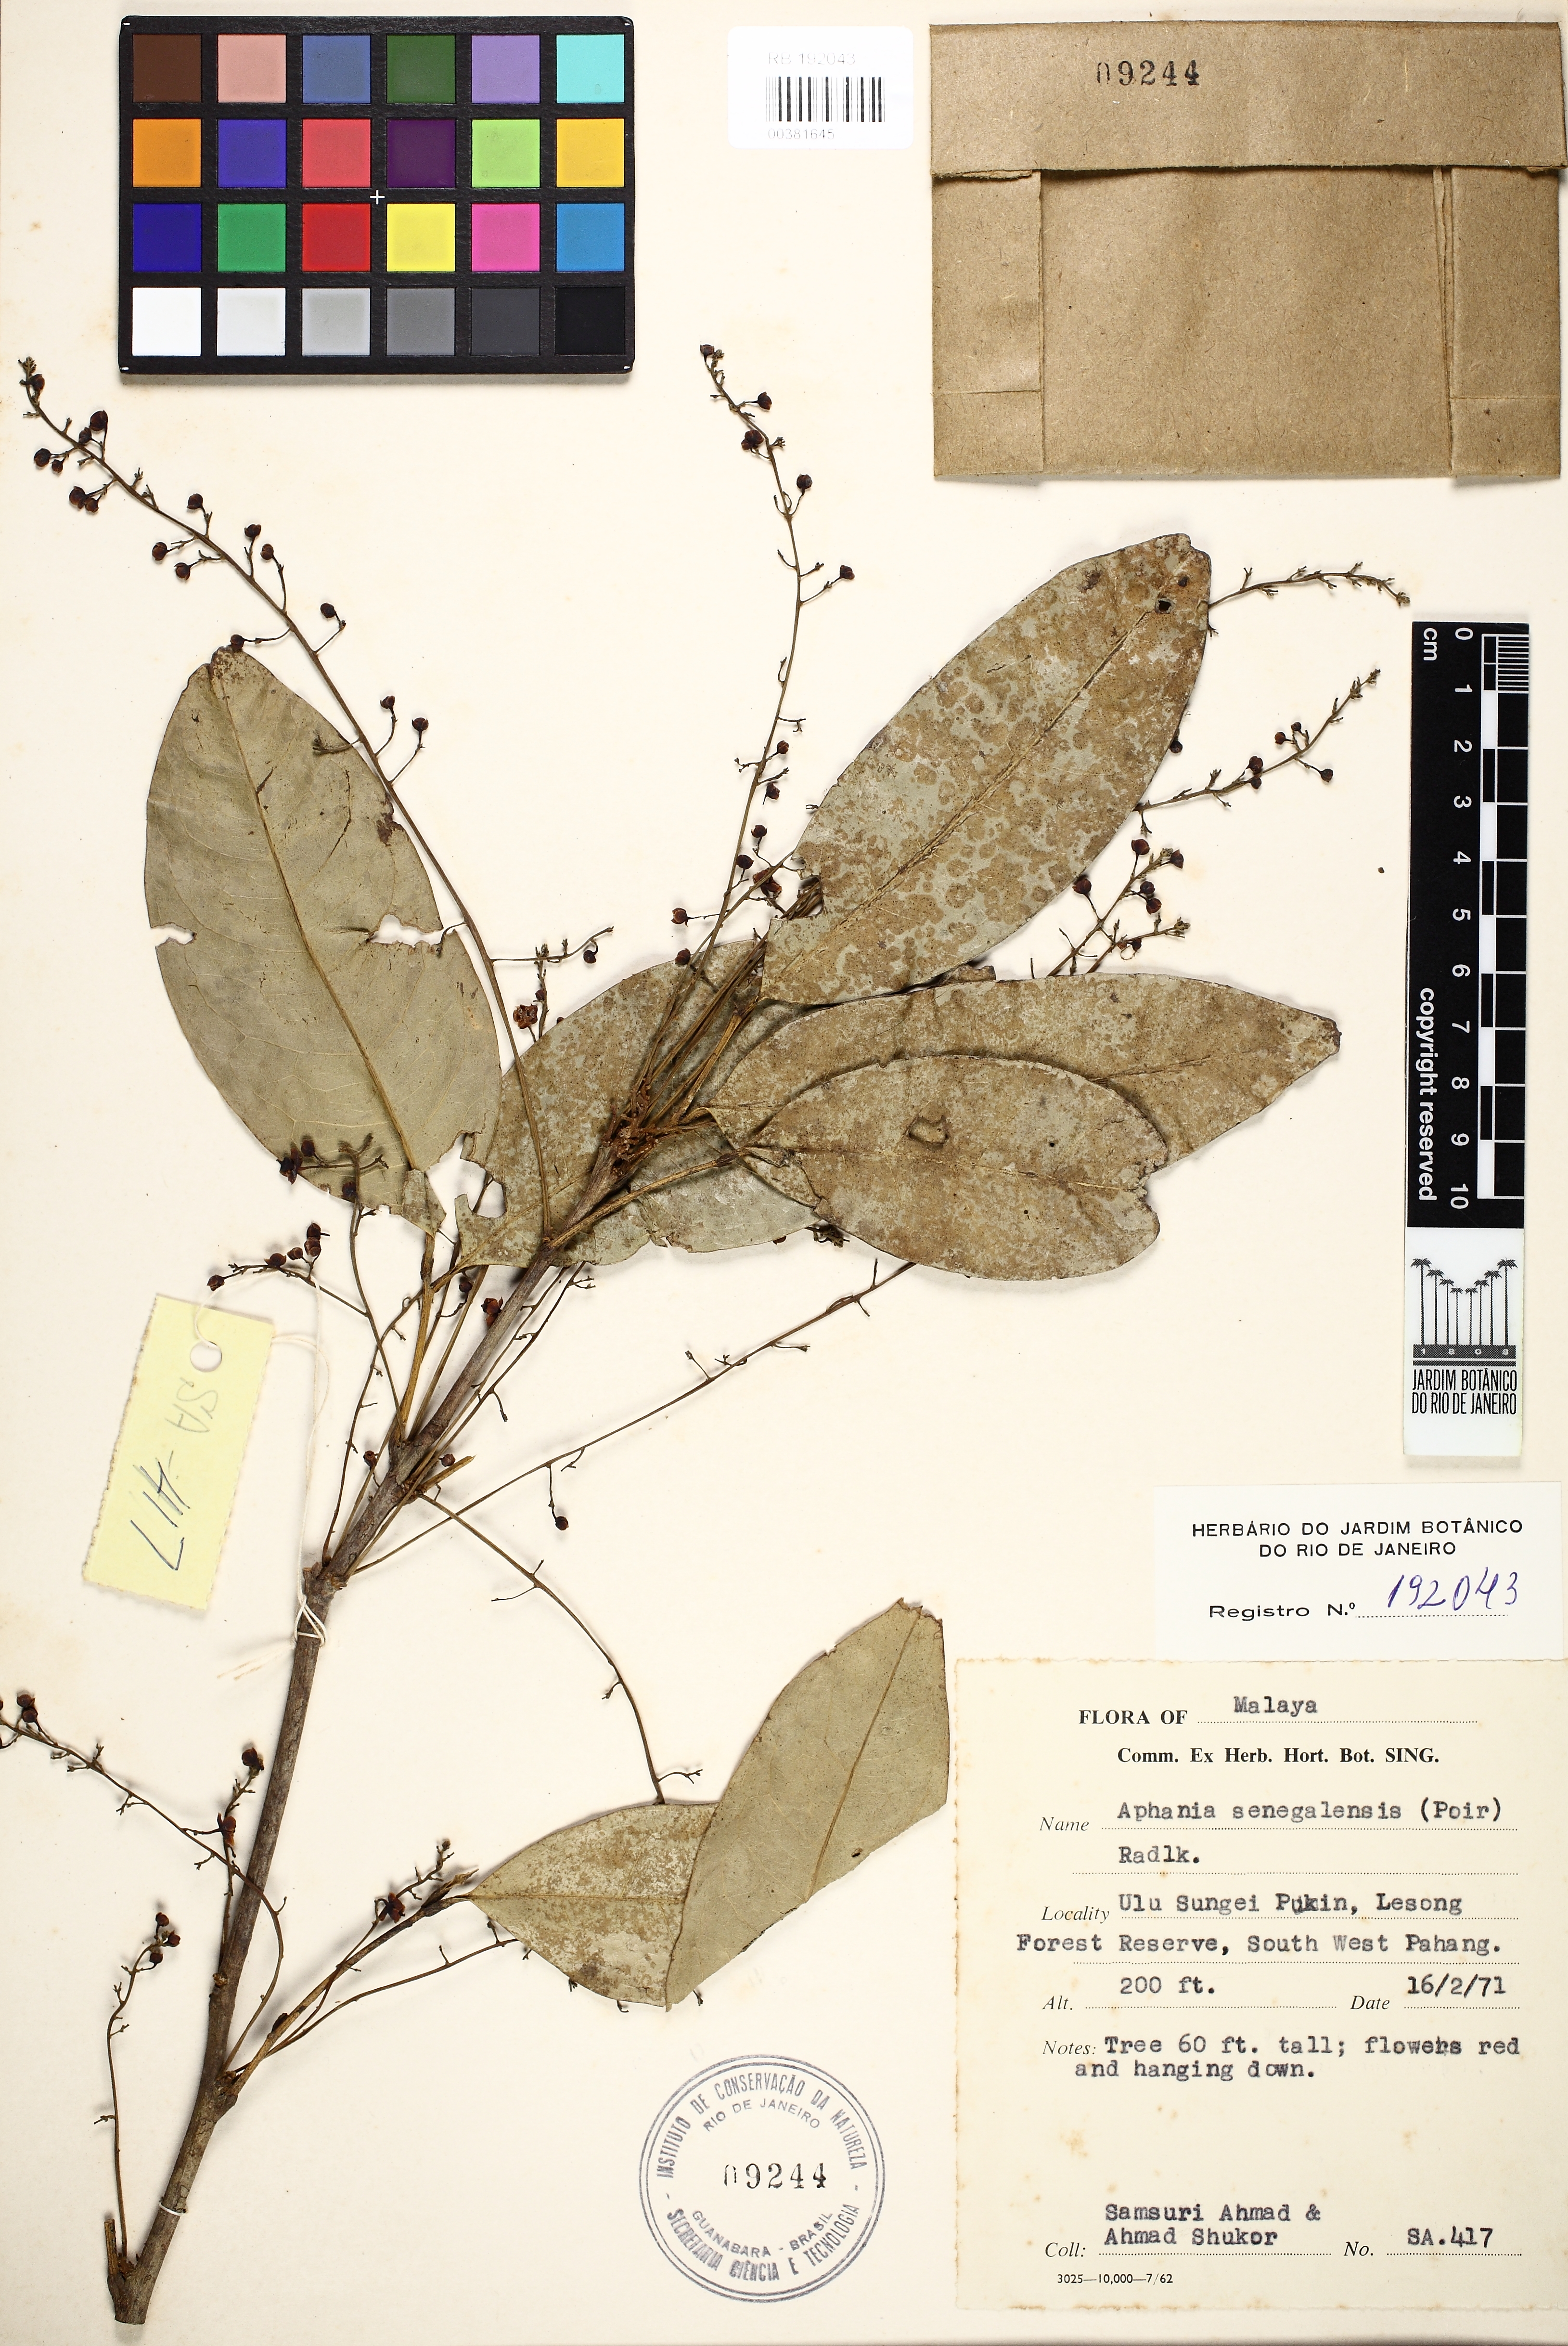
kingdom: Plantae
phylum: Tracheophyta
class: Magnoliopsida
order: Sapindales
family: Sapindaceae
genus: Lepisanthes
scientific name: Lepisanthes senegalensis
